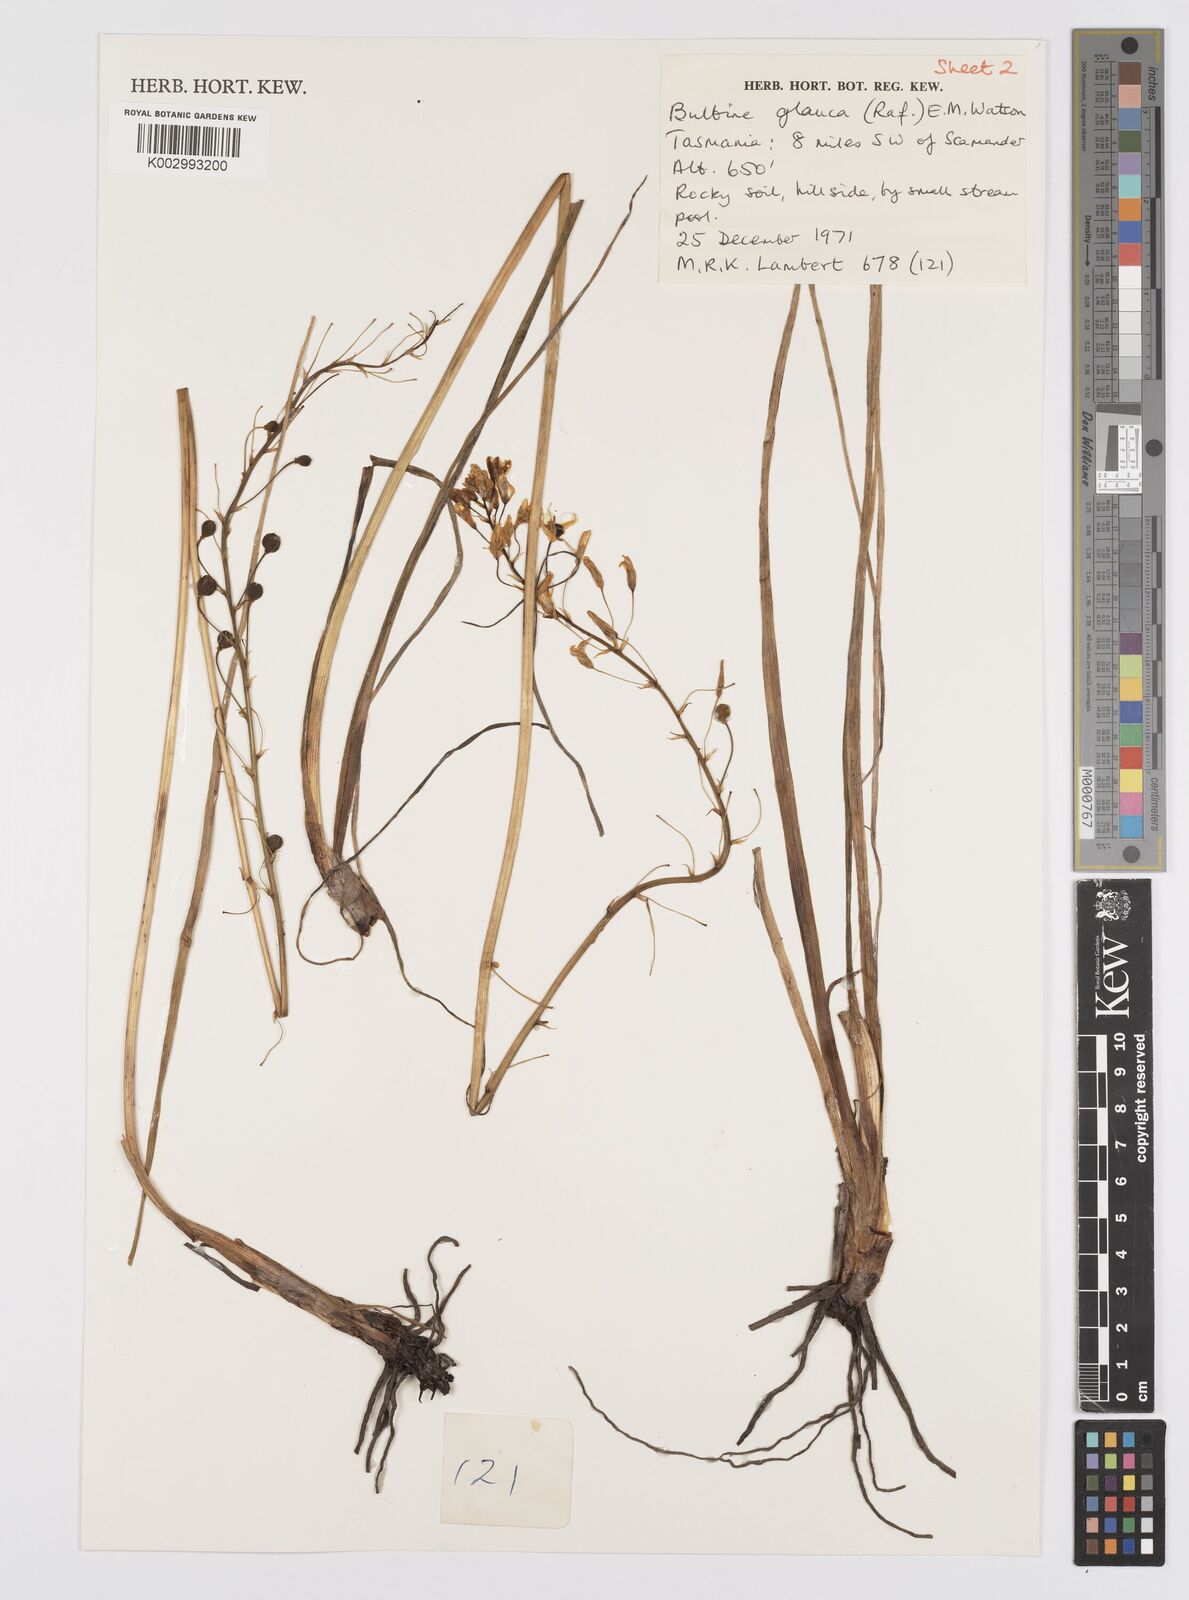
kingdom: Plantae
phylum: Tracheophyta
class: Liliopsida
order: Asparagales
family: Asphodelaceae
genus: Bulbine
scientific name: Bulbine glauca
